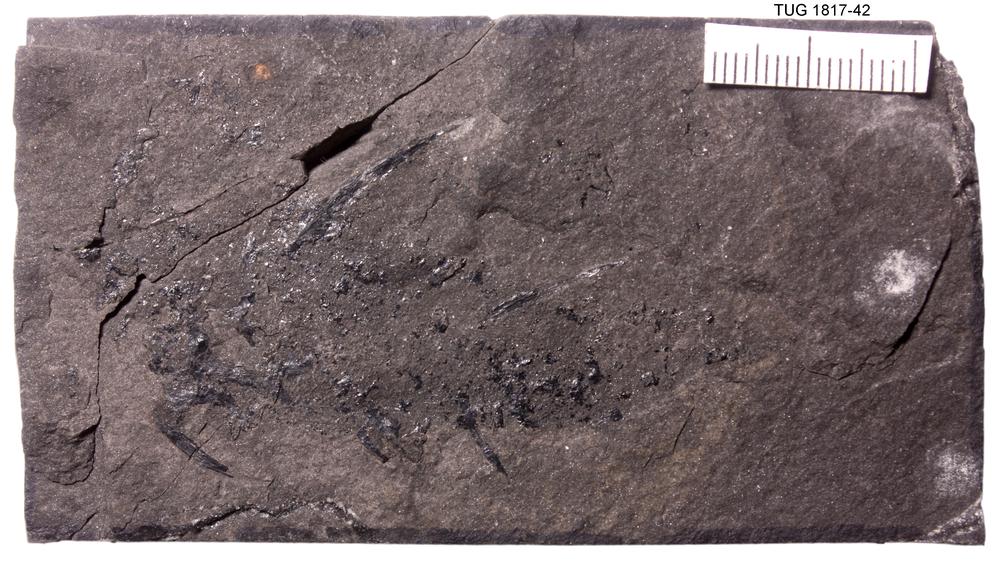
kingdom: Animalia
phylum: Chordata
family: Diplacanthidae
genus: Diplacanthus
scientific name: Diplacanthus crassisimus
